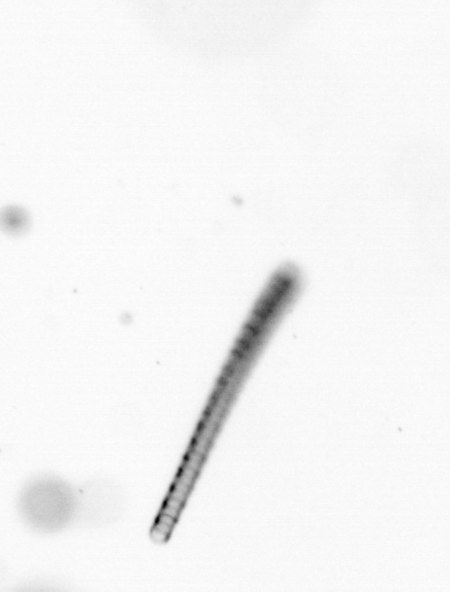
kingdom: Chromista
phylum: Ochrophyta
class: Bacillariophyceae
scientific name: Bacillariophyceae
